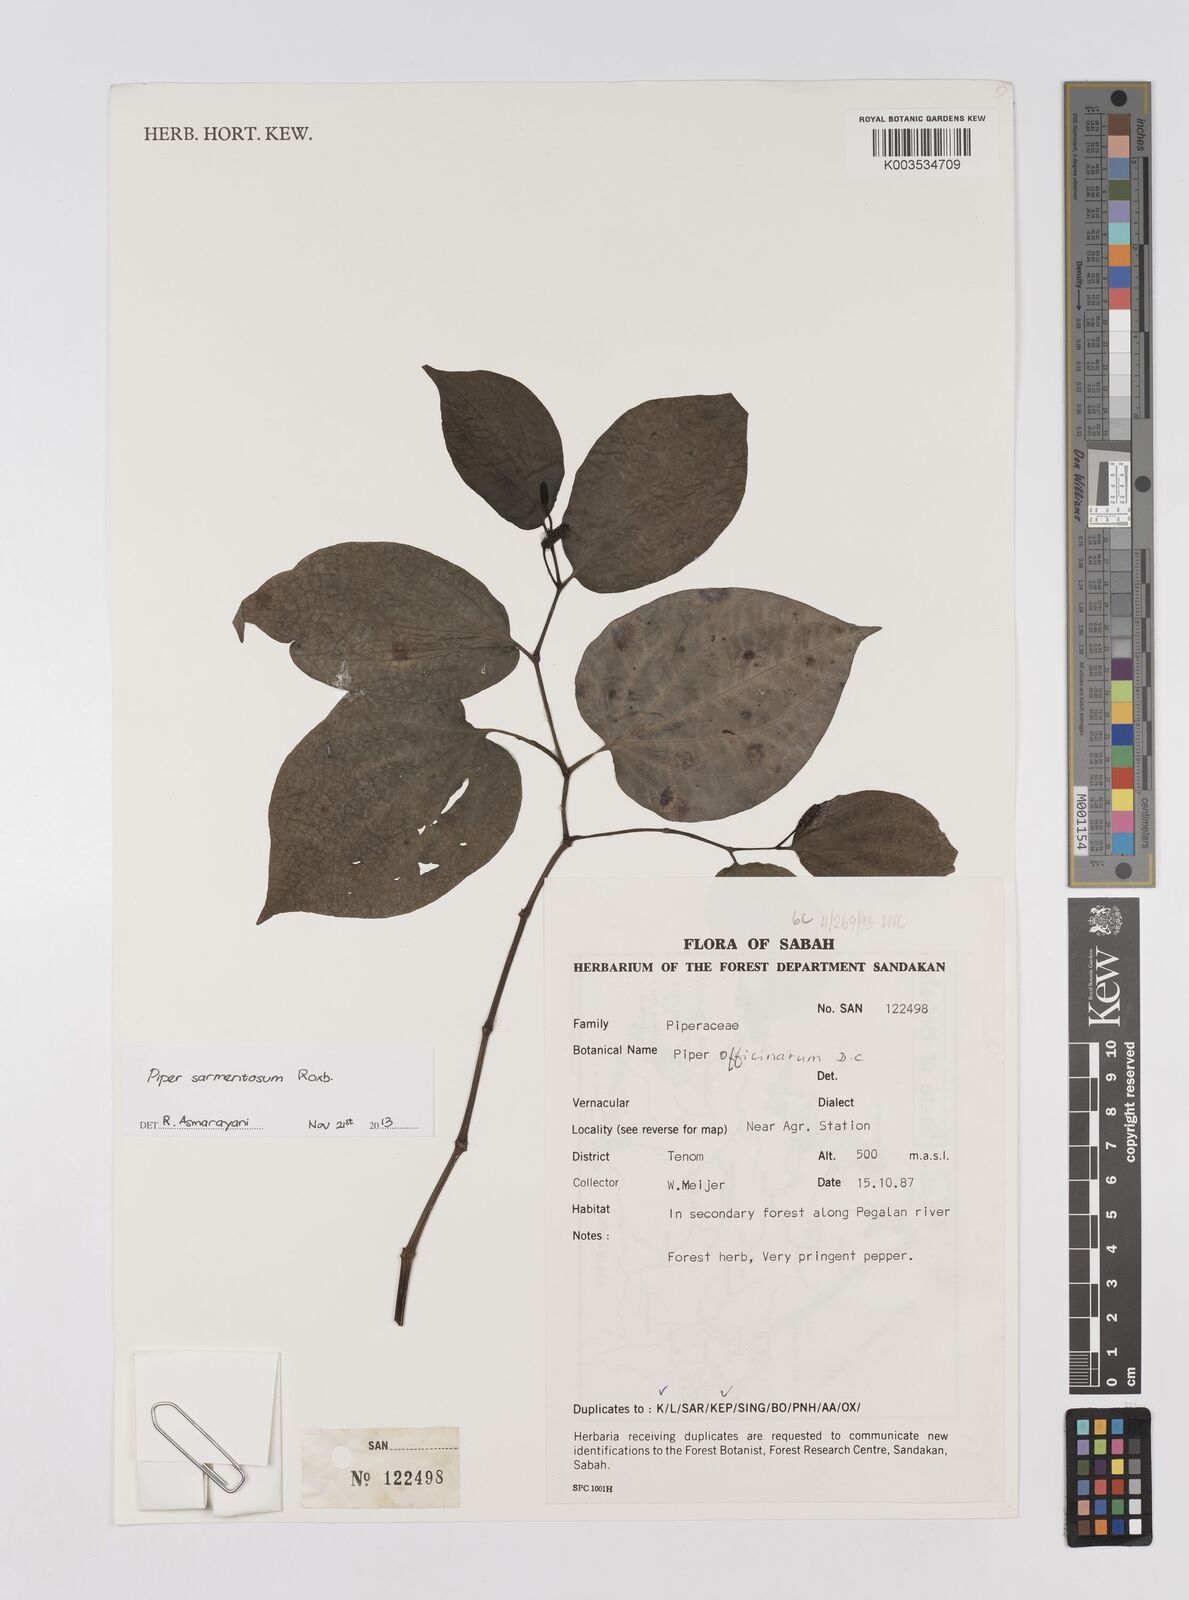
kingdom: Plantae
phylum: Tracheophyta
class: Magnoliopsida
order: Piperales
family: Piperaceae
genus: Piper
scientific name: Piper muricatum
